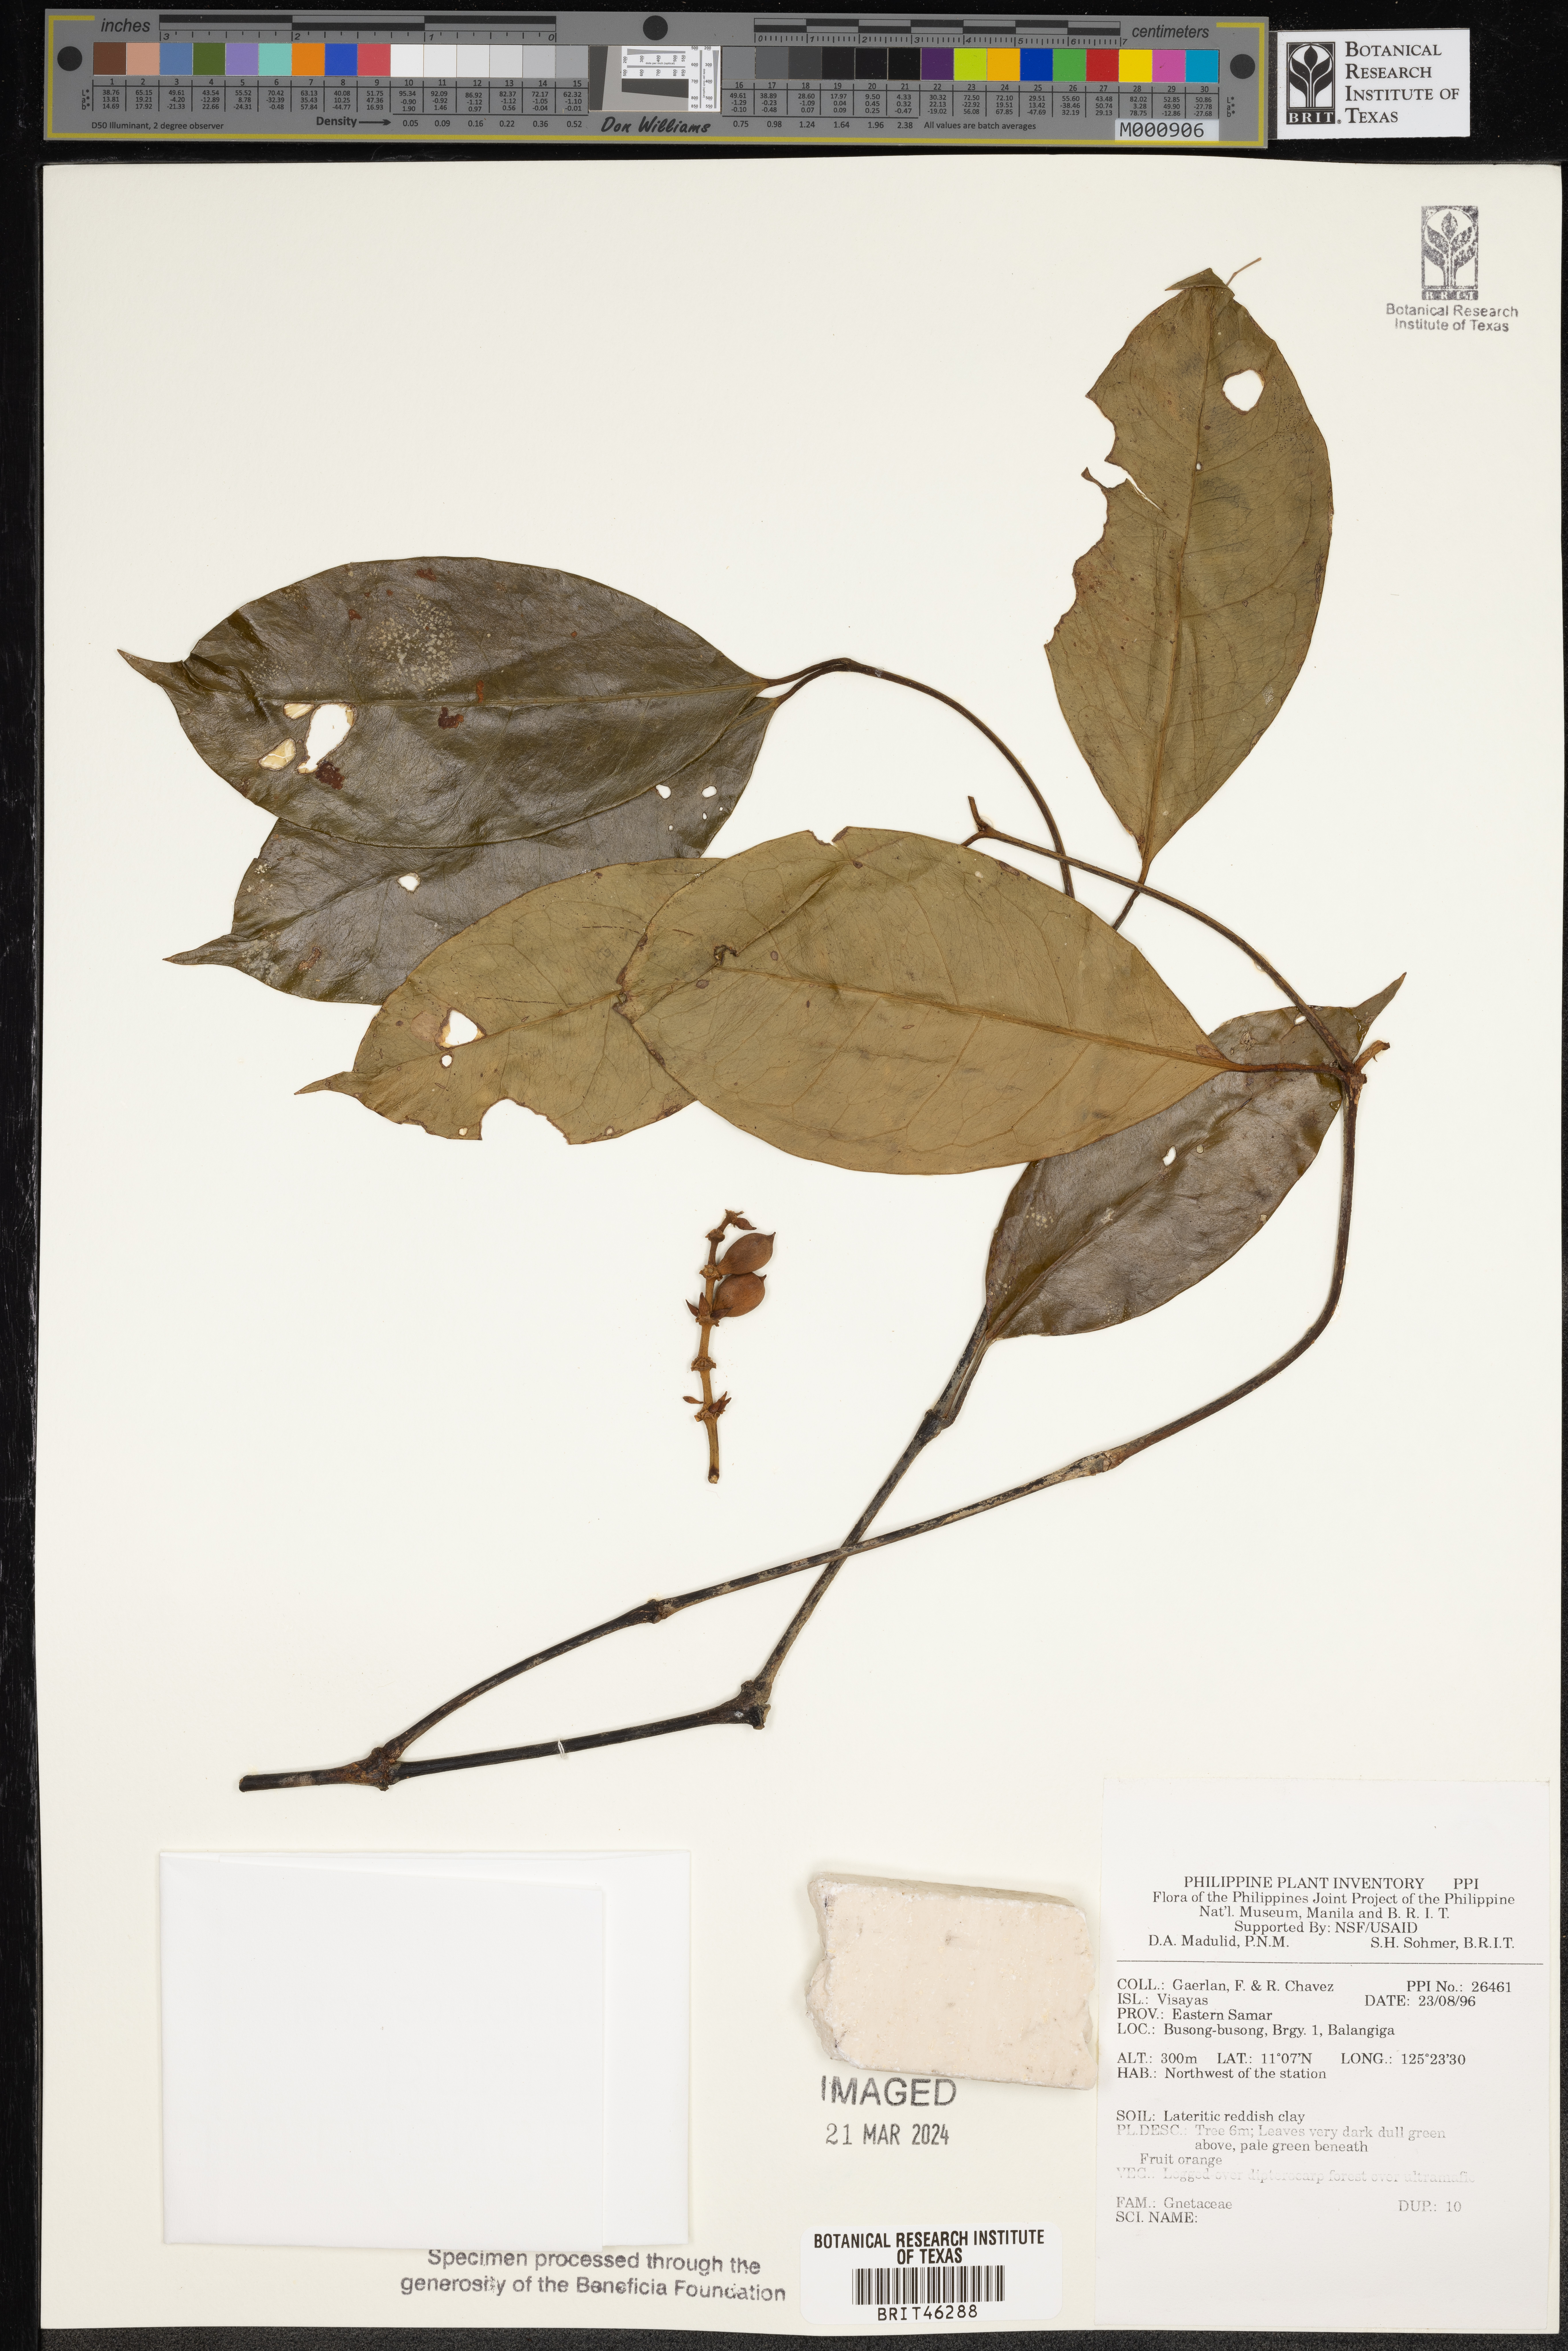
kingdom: Plantae
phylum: Tracheophyta
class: Gnetopsida
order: Gnetales
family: Gnetaceae
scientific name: Gnetaceae
